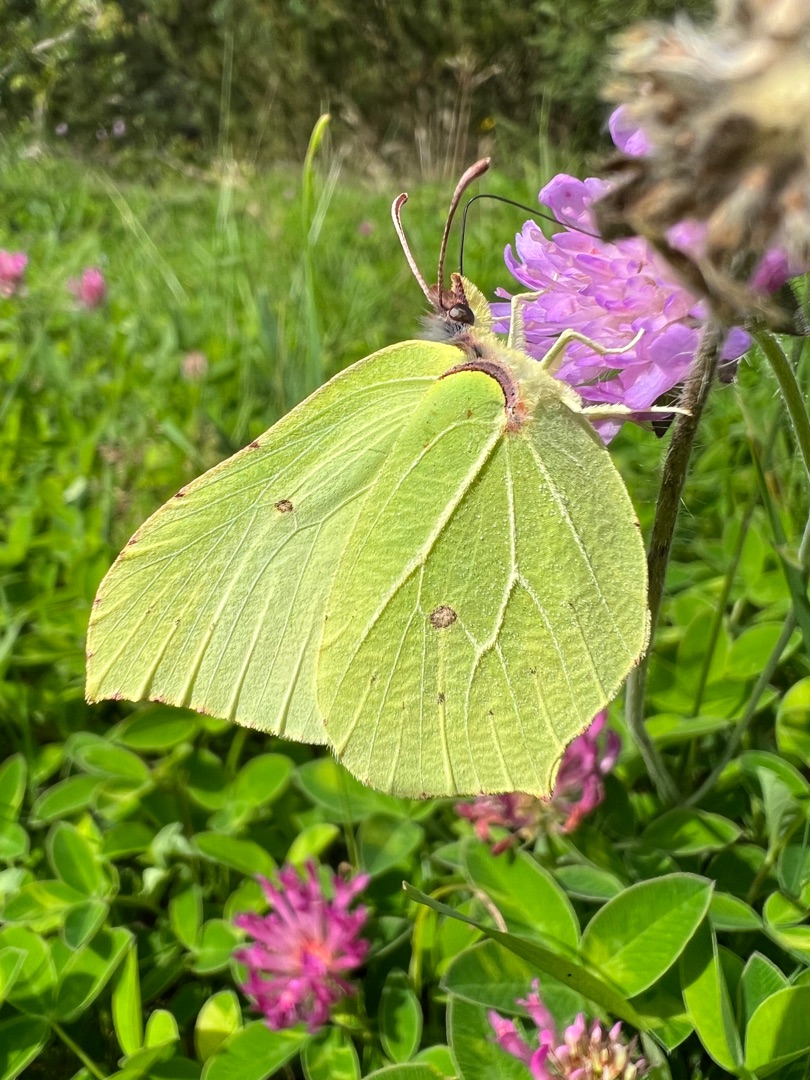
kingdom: Animalia
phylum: Arthropoda
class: Insecta
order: Lepidoptera
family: Pieridae
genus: Gonepteryx
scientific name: Gonepteryx rhamni
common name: Citronsommerfugl
